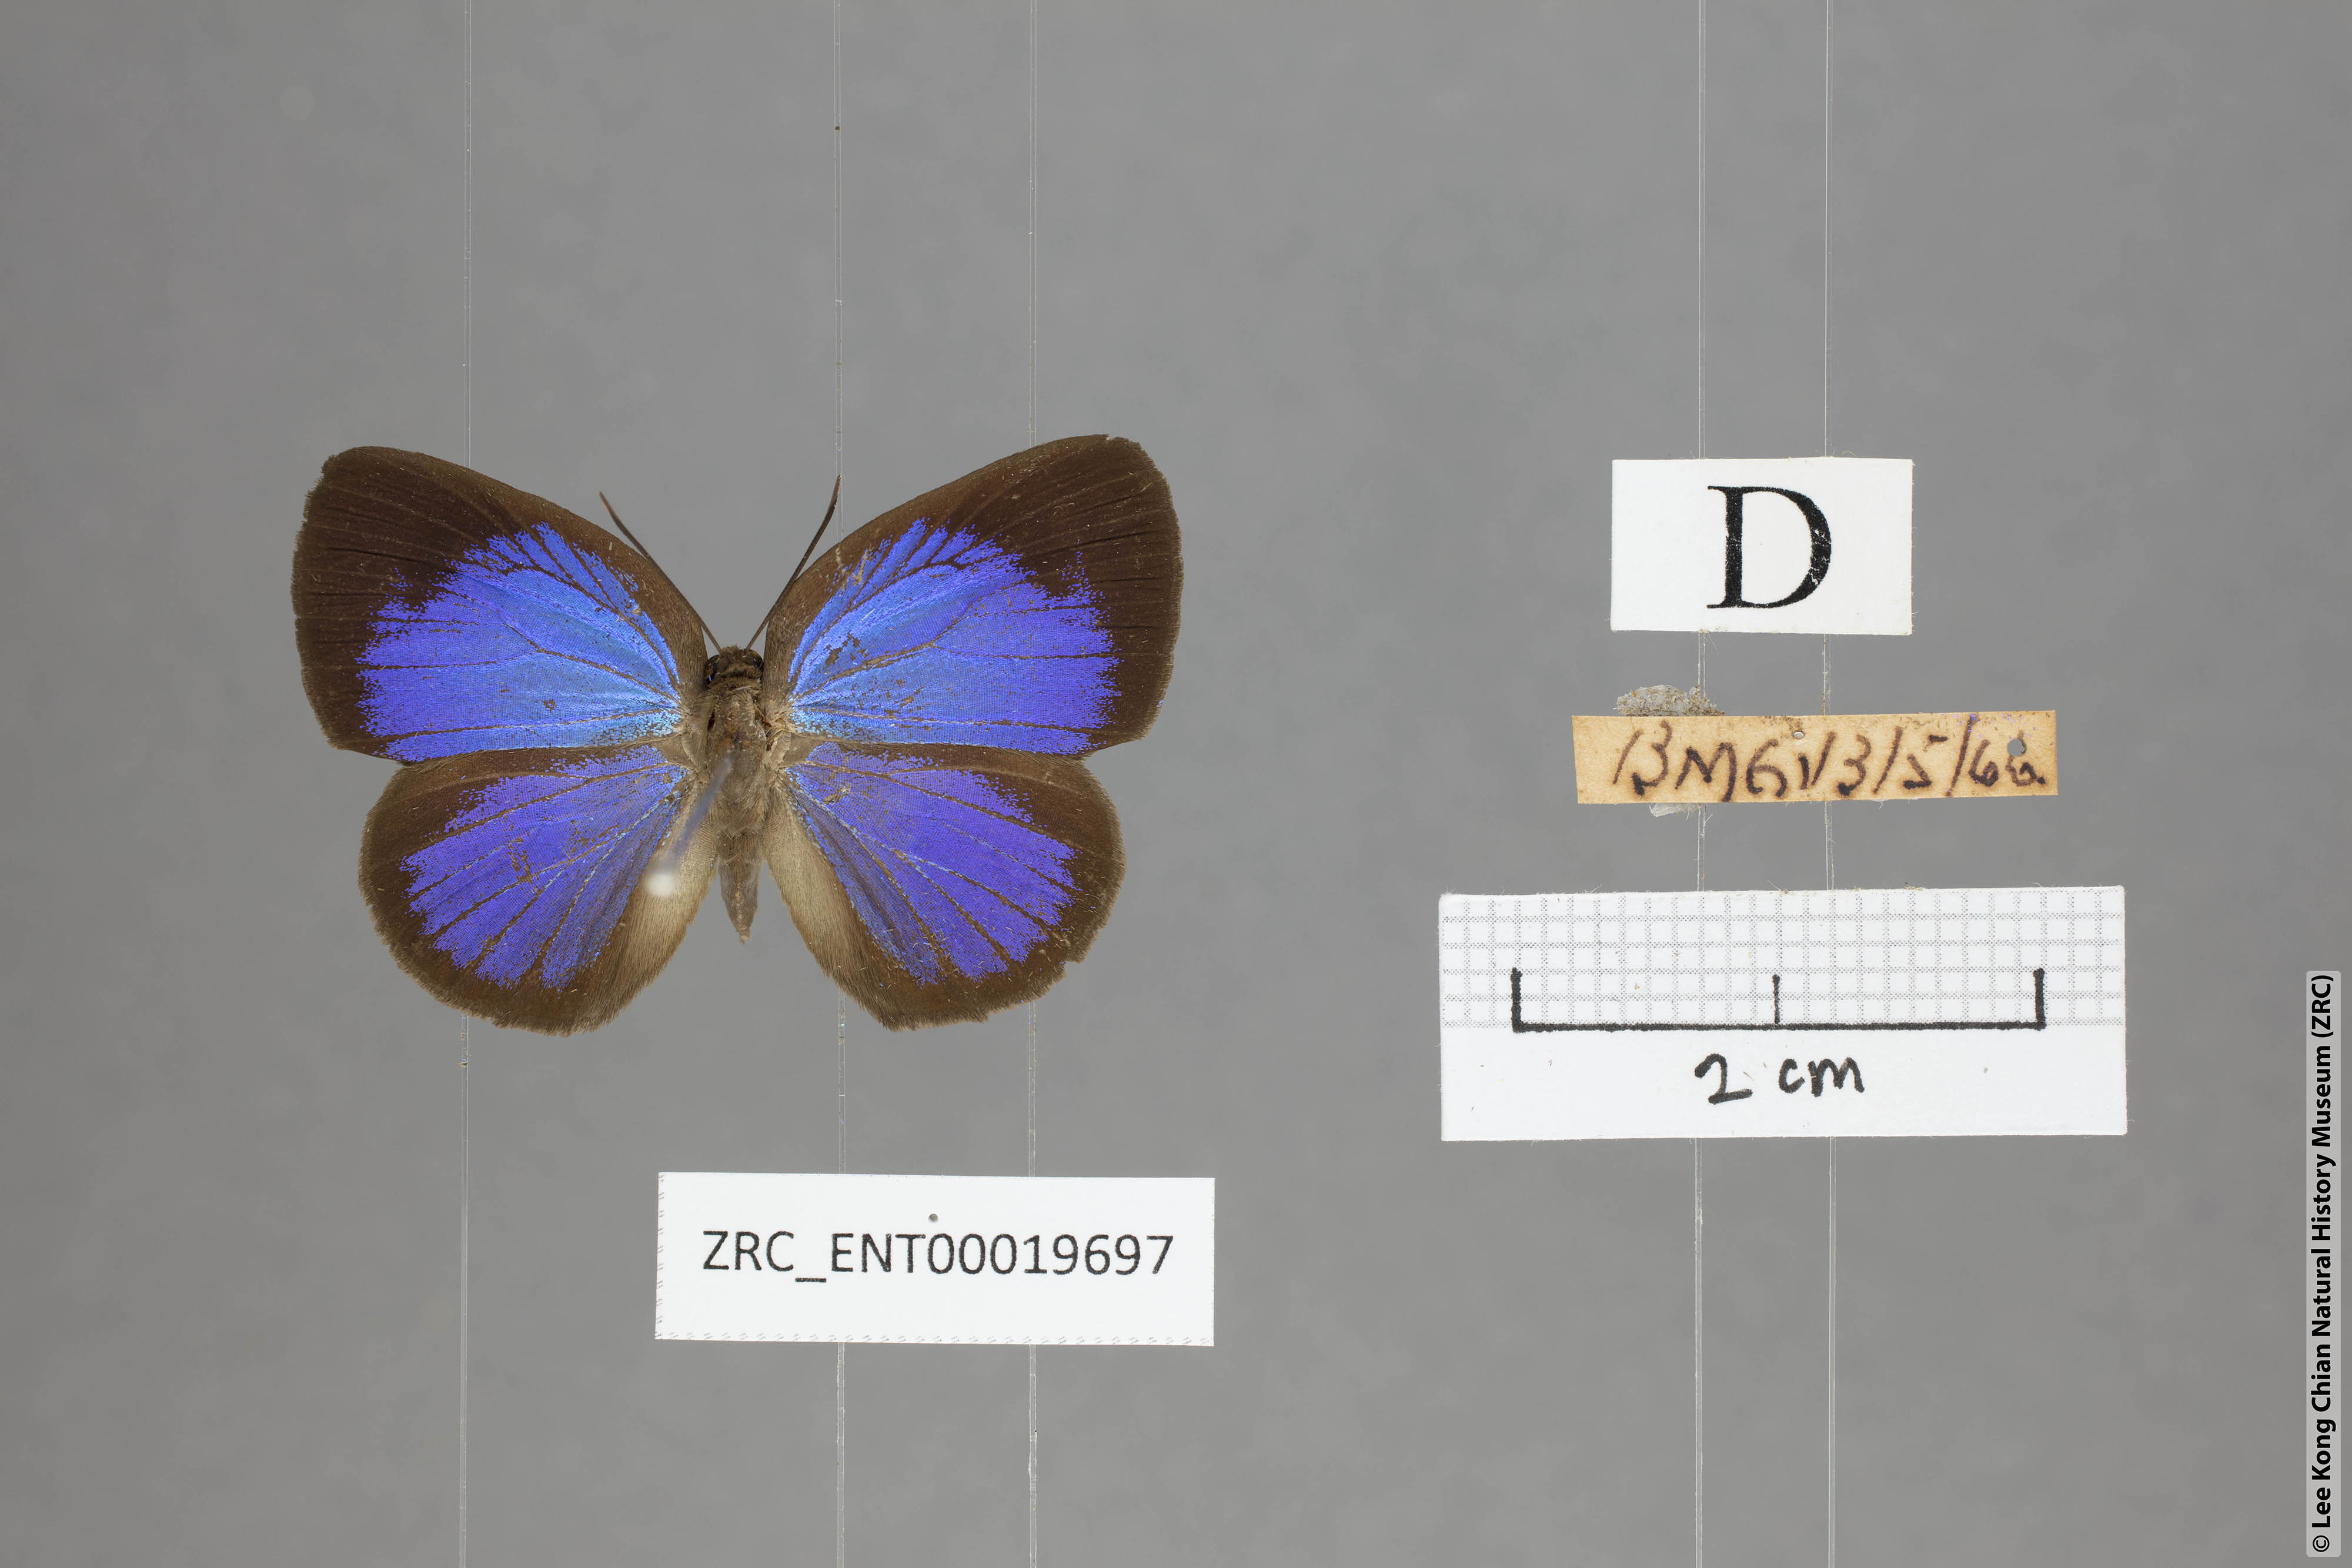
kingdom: Animalia
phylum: Arthropoda
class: Insecta
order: Lepidoptera
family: Lycaenidae
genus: Arhopala
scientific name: Arhopala muta
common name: Mutal oakblue
